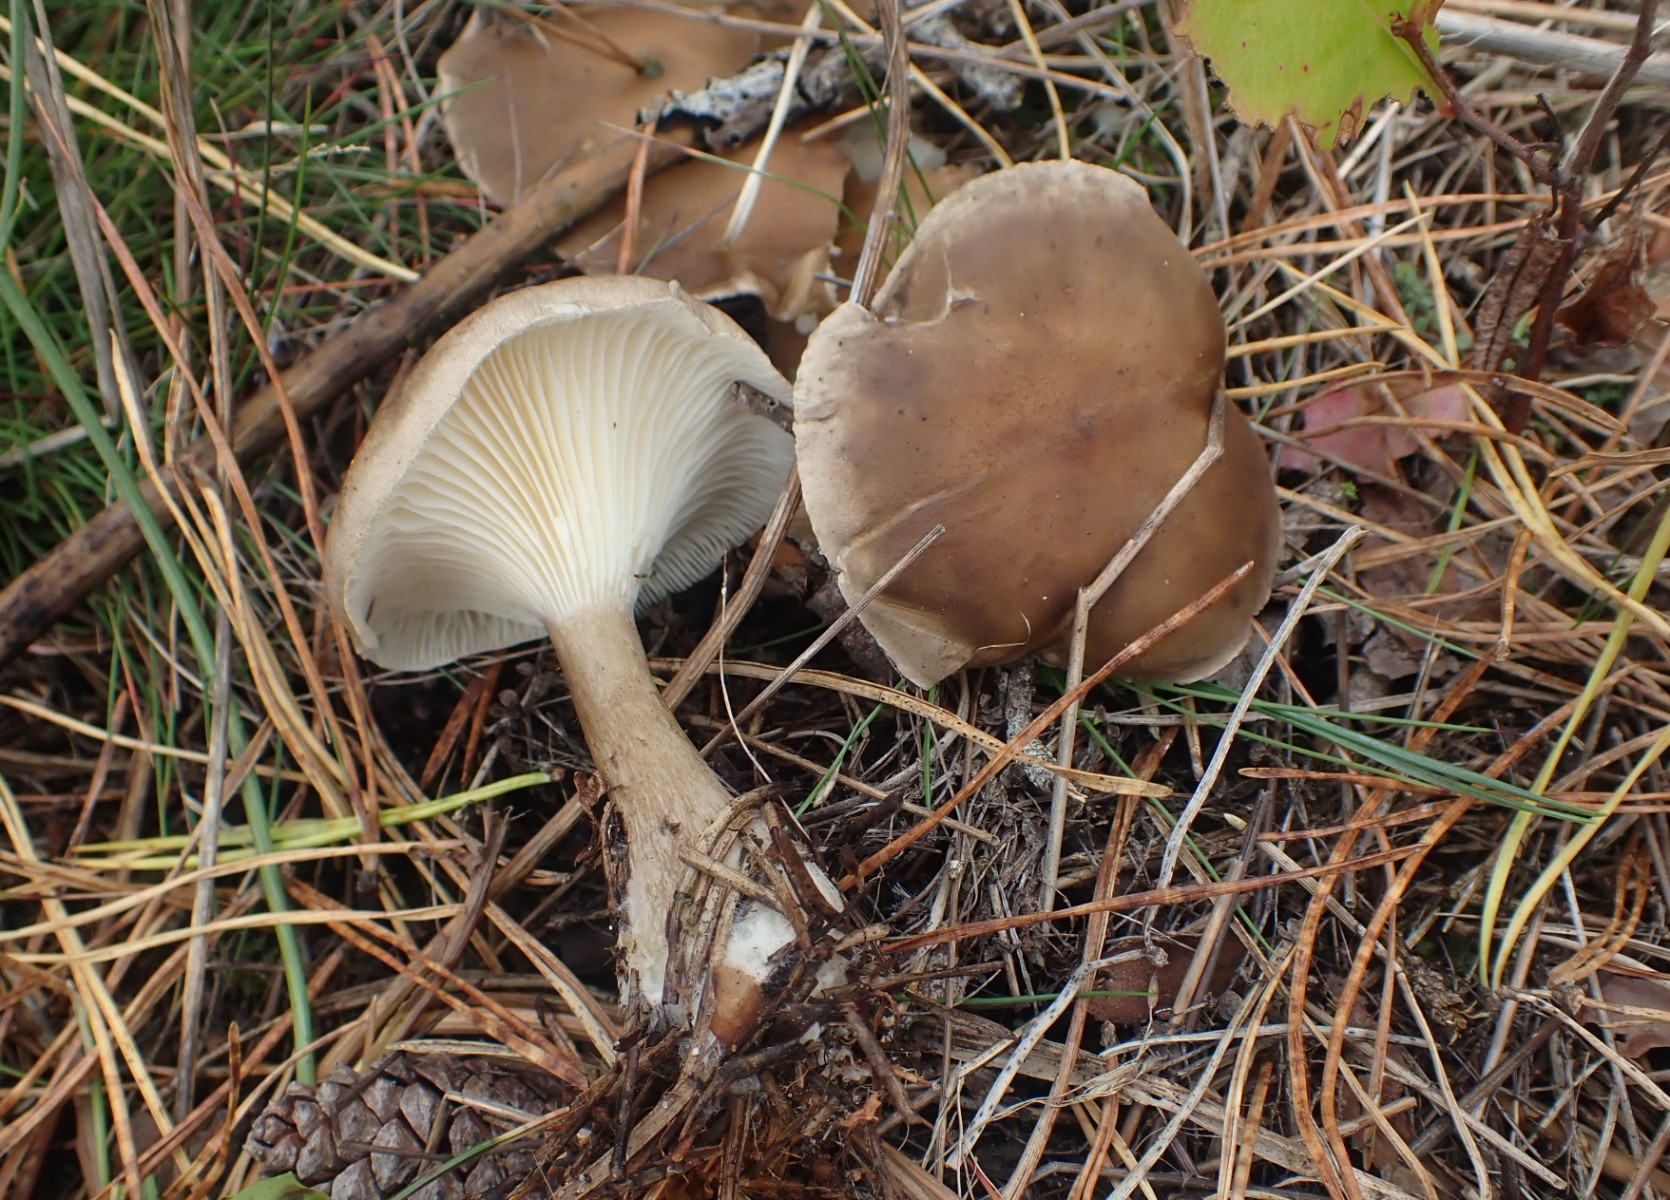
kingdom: Fungi
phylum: Basidiomycota
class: Agaricomycetes
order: Agaricales
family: Hygrophoraceae
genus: Ampulloclitocybe
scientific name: Ampulloclitocybe clavipes
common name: køllefod
